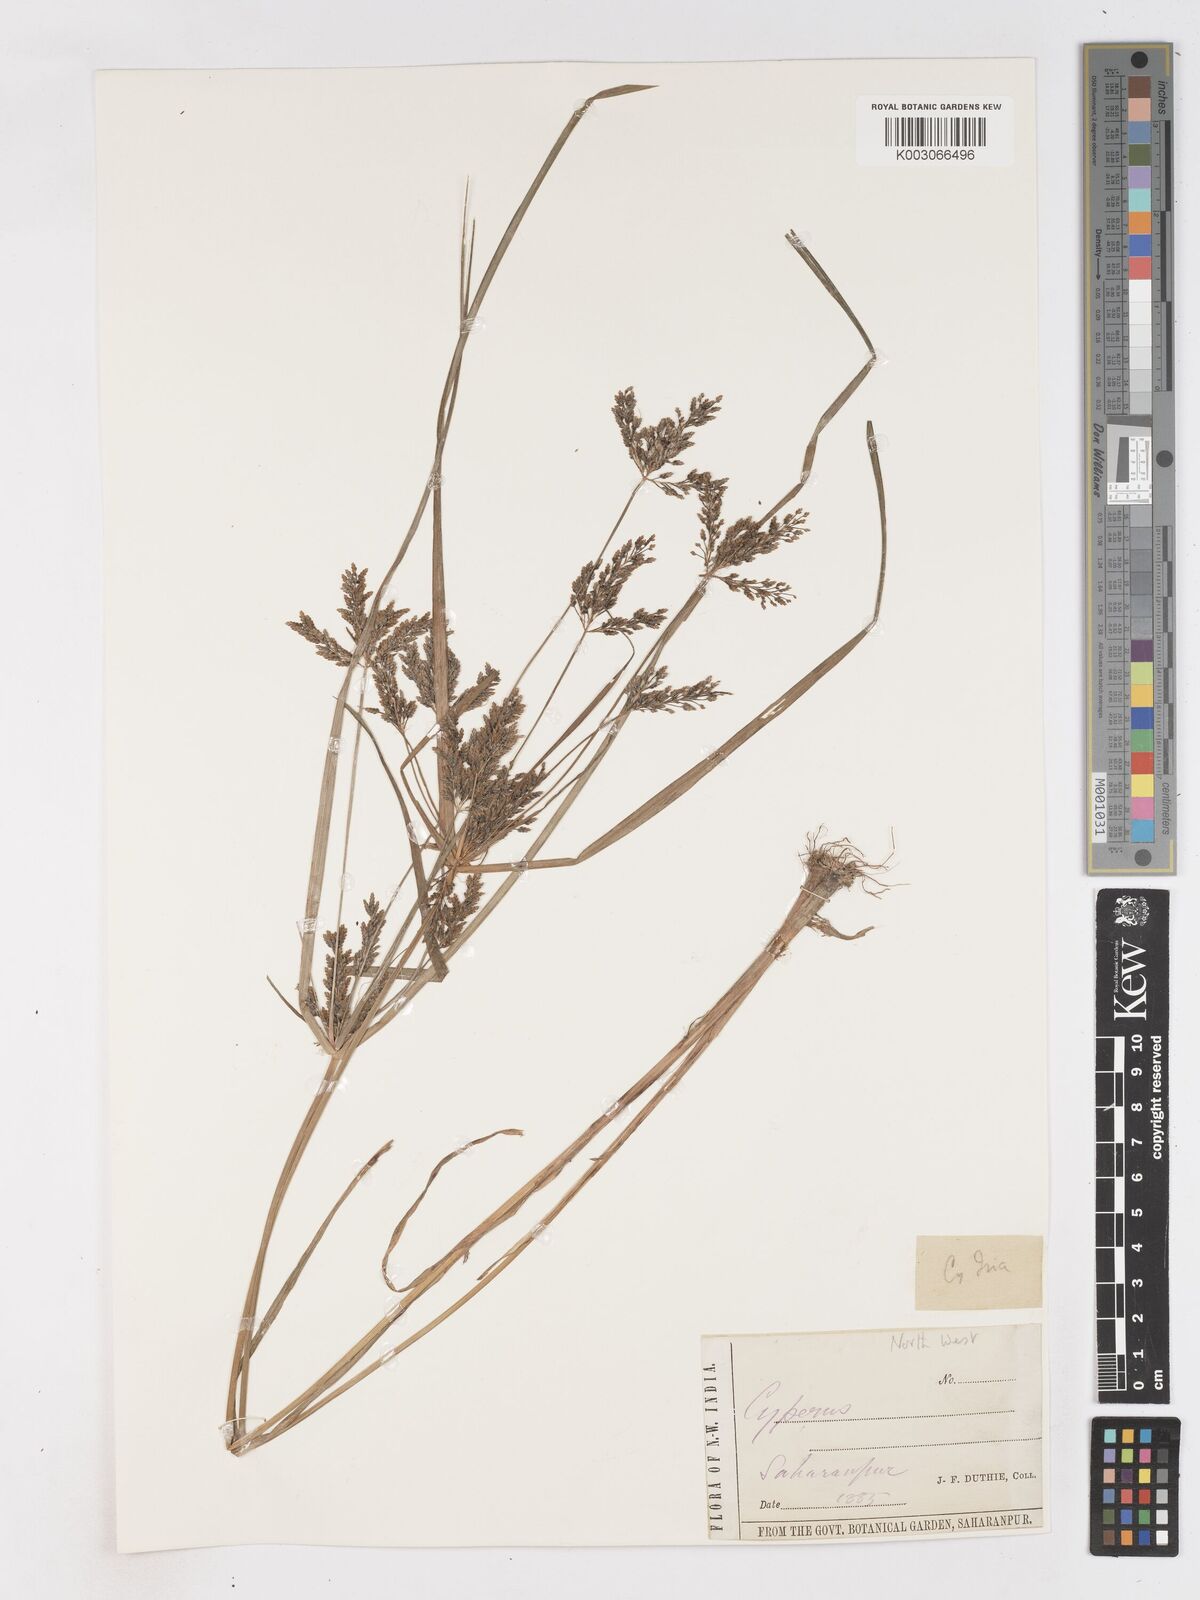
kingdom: Plantae
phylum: Tracheophyta
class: Liliopsida
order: Poales
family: Cyperaceae
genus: Cyperus
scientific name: Cyperus iria
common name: Ricefield flatsedge
